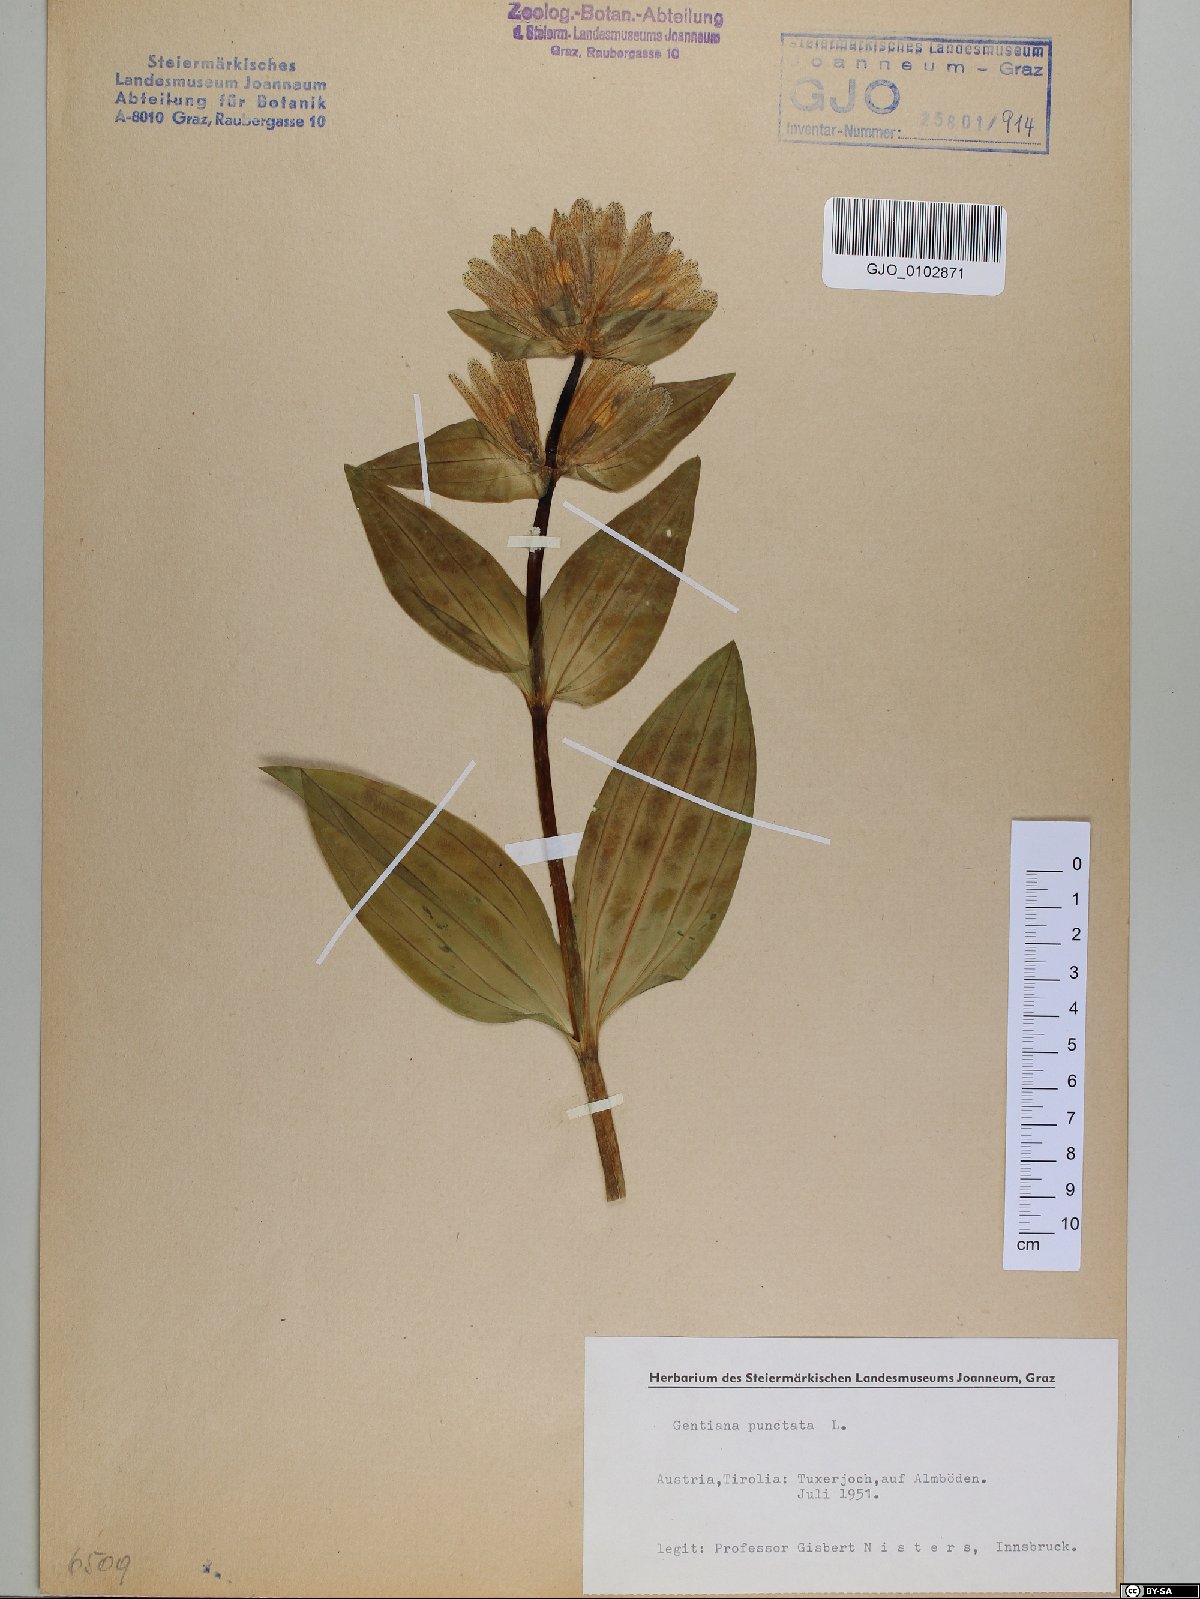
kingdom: Plantae
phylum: Tracheophyta
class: Magnoliopsida
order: Gentianales
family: Gentianaceae
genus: Gentiana
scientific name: Gentiana punctata
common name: Spotted gentian
